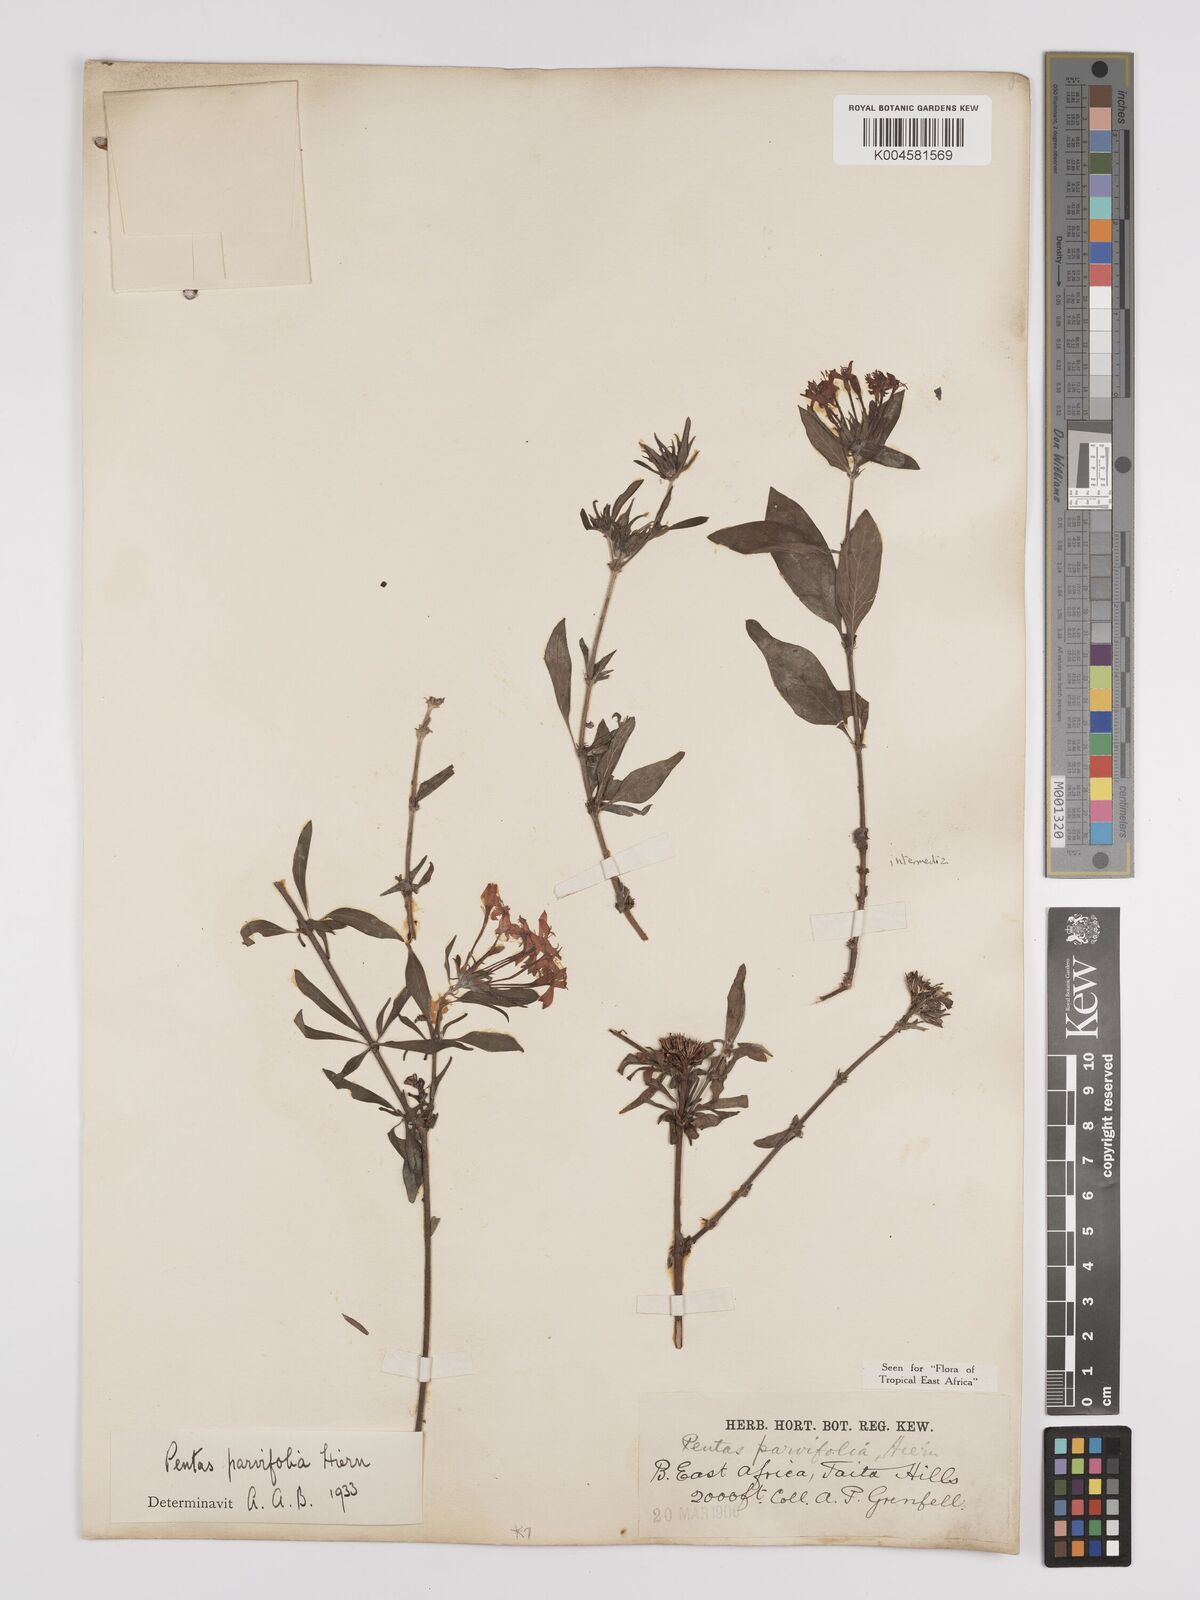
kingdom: Plantae
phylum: Tracheophyta
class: Magnoliopsida
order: Gentianales
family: Rubiaceae
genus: Rhodopentas
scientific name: Rhodopentas parvifolia
